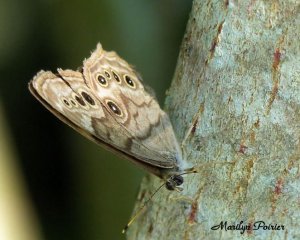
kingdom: Animalia
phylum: Arthropoda
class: Insecta
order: Lepidoptera
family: Nymphalidae
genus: Lethe
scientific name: Lethe anthedon
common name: Northern Pearly-Eye
